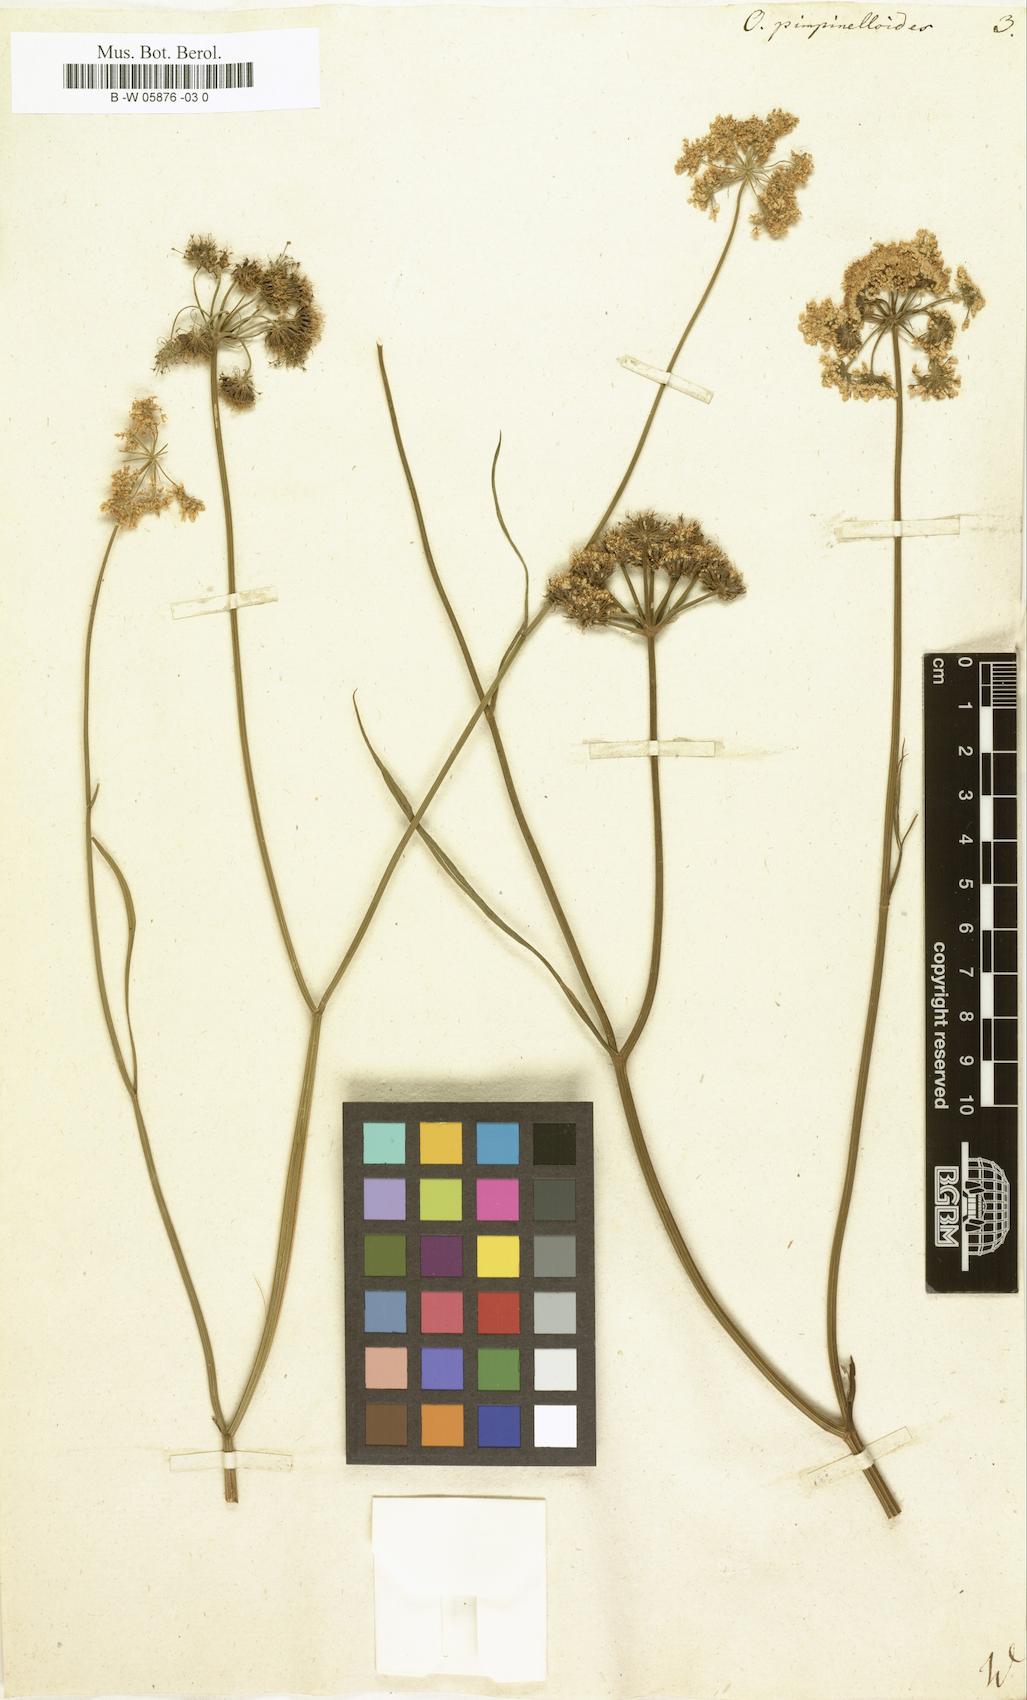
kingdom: Plantae
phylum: Tracheophyta
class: Magnoliopsida
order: Apiales
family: Apiaceae
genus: Oenanthe
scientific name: Oenanthe pimpinelloides
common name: Corky-fruited water-dropwort
